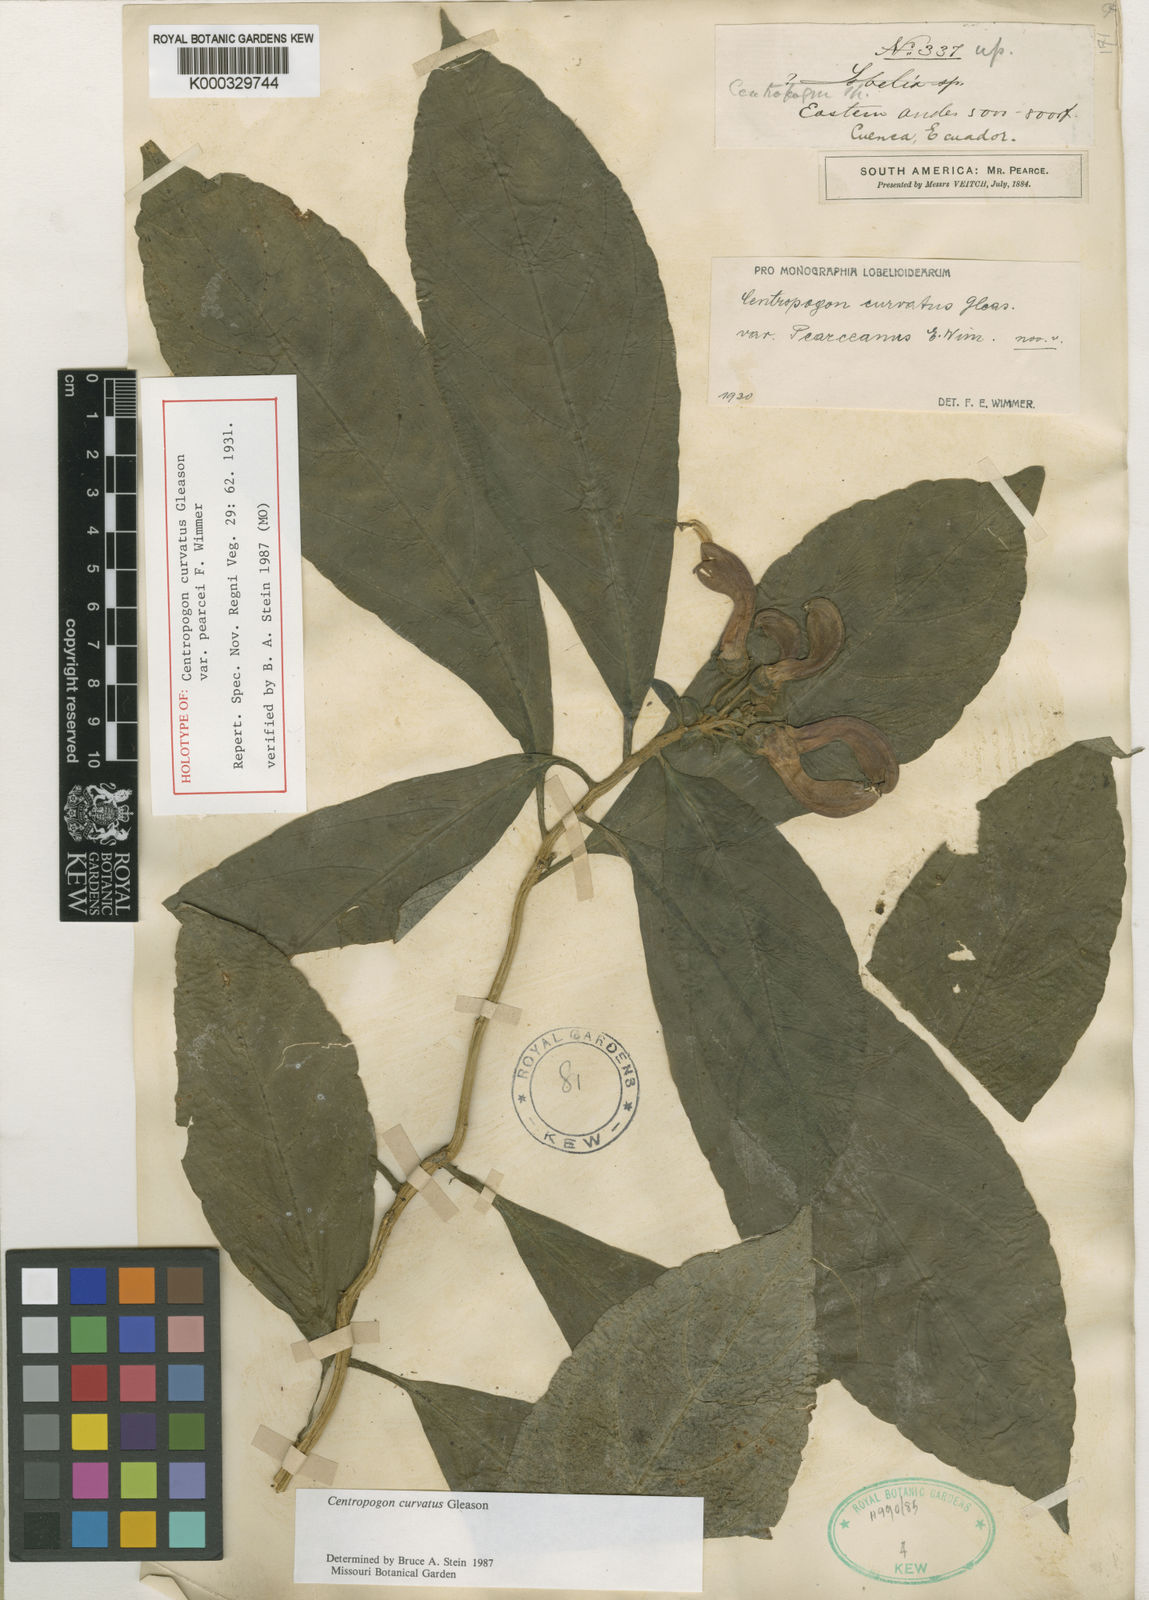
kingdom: Plantae
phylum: Tracheophyta
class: Magnoliopsida
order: Asterales
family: Campanulaceae
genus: Centropogon
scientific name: Centropogon curvatus
